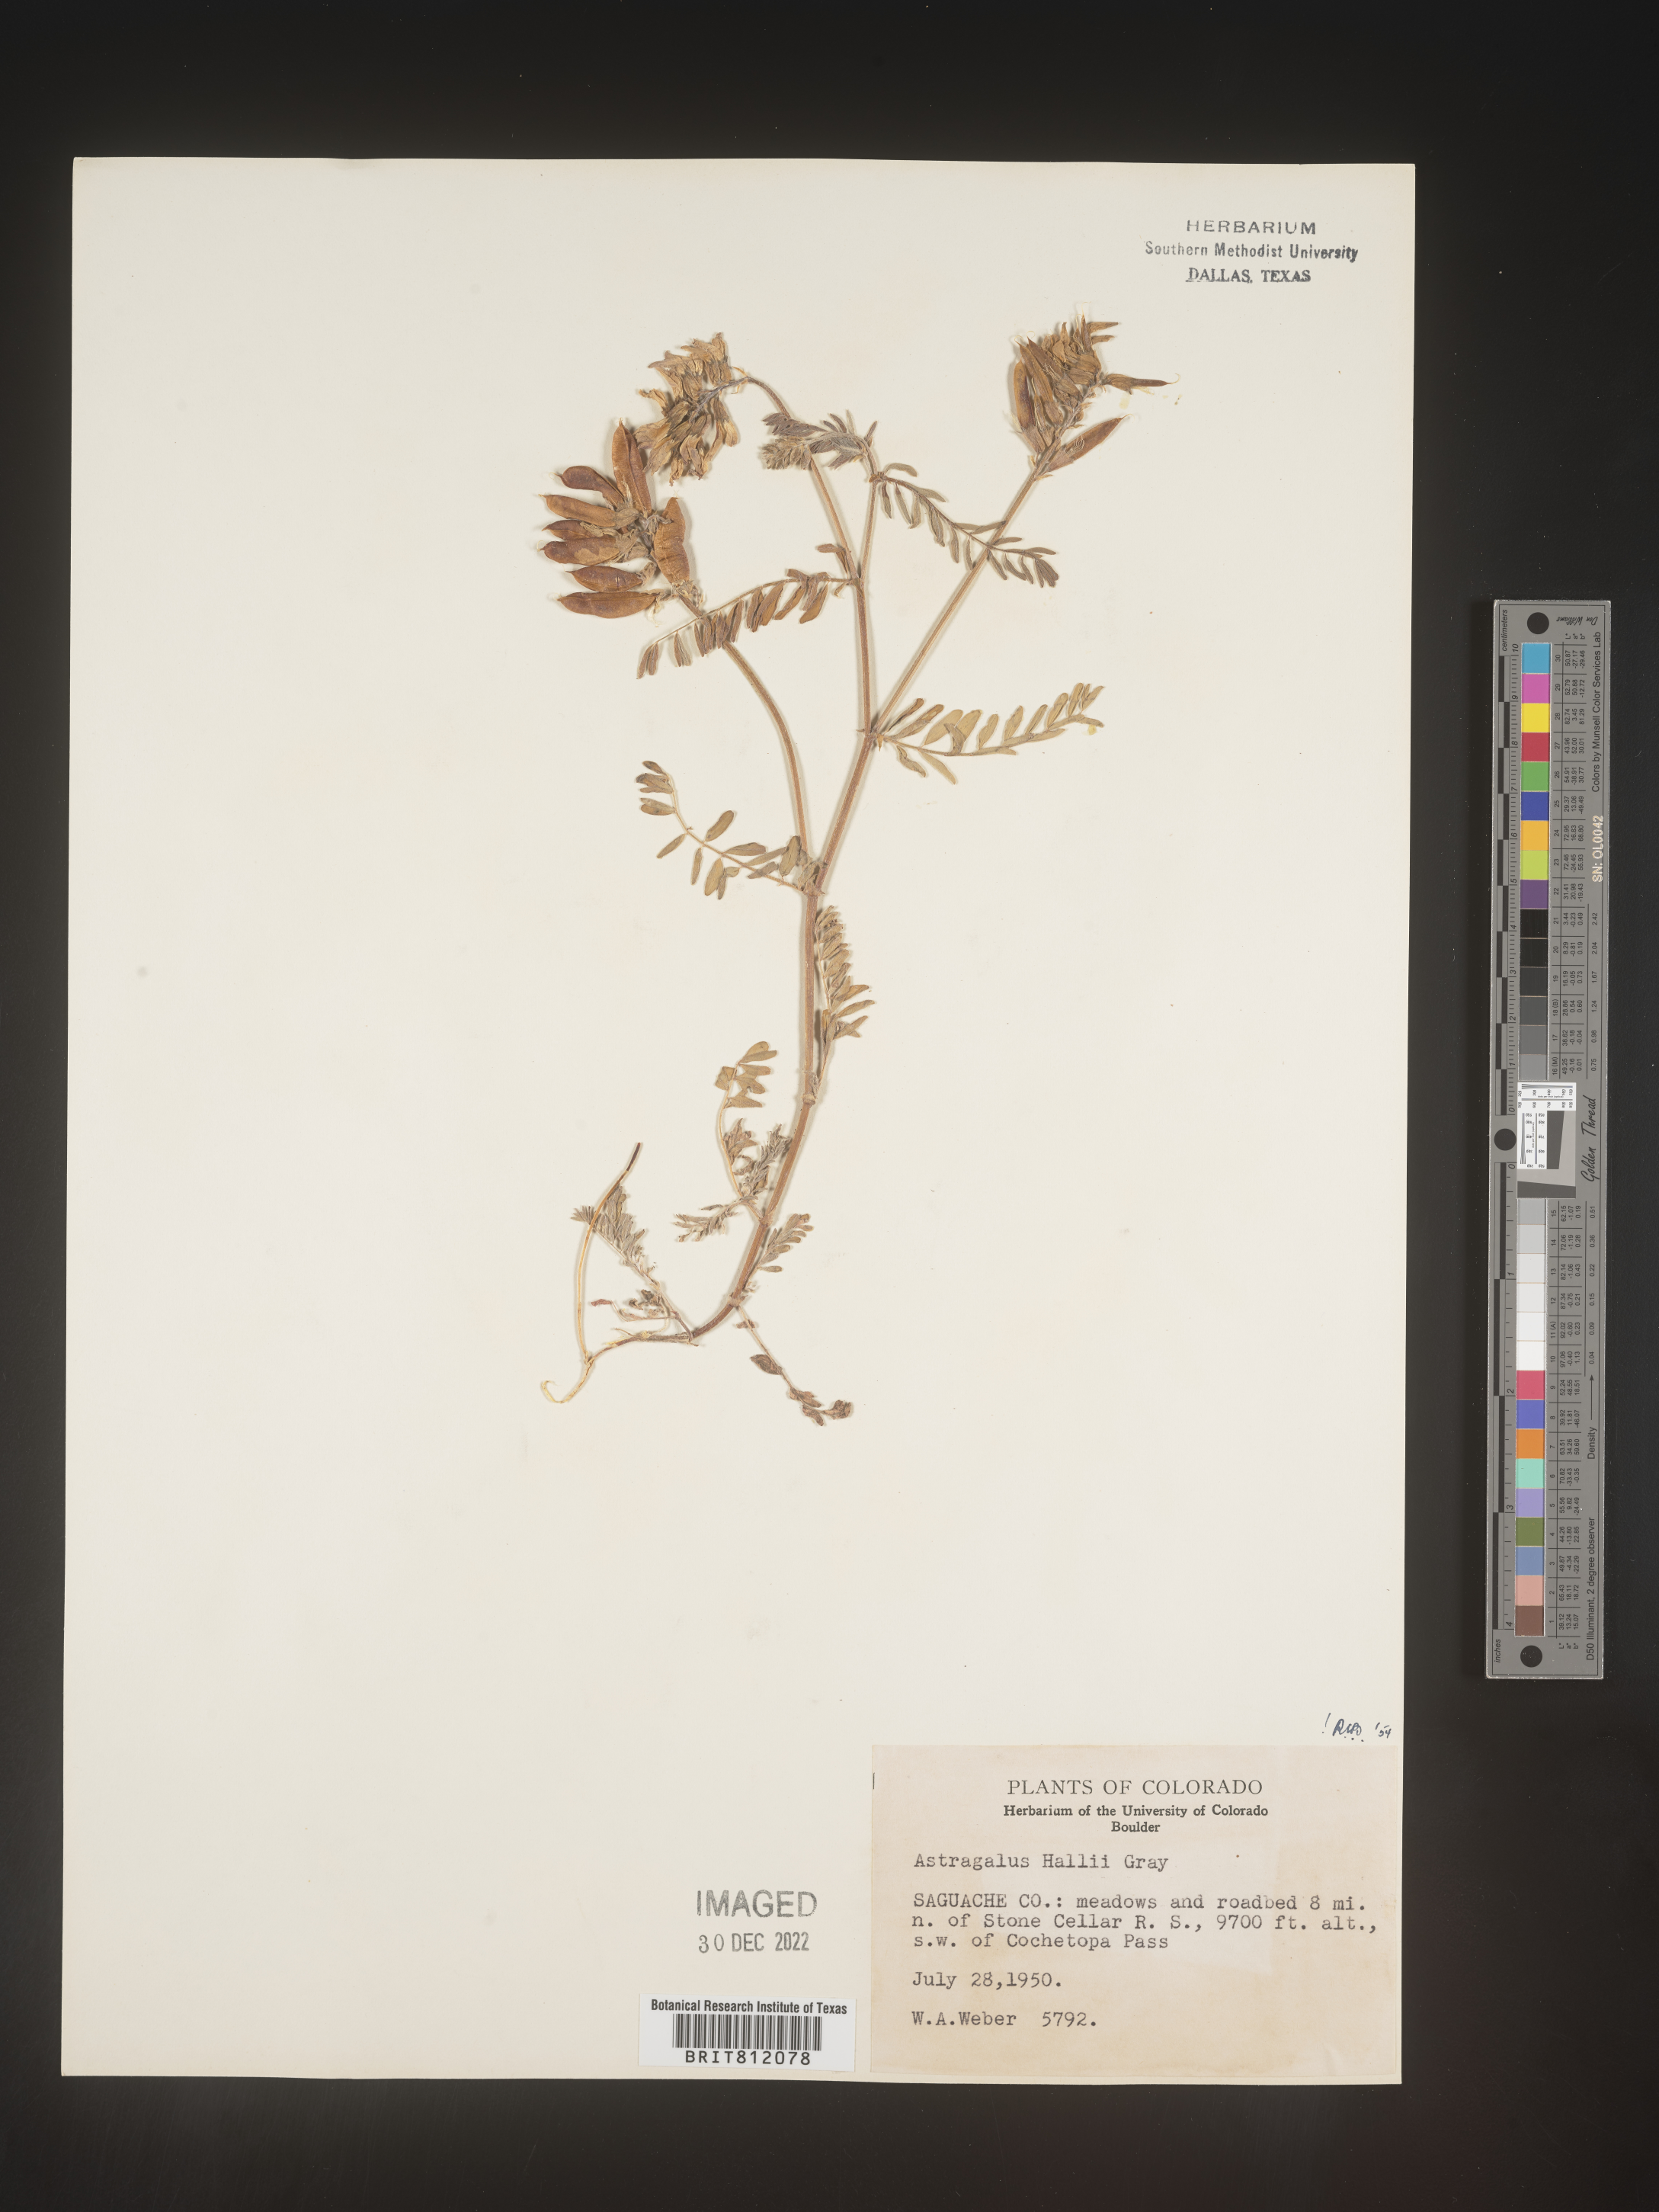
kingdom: Plantae
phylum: Tracheophyta
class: Magnoliopsida
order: Fabales
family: Fabaceae
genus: Astragalus
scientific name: Astragalus
